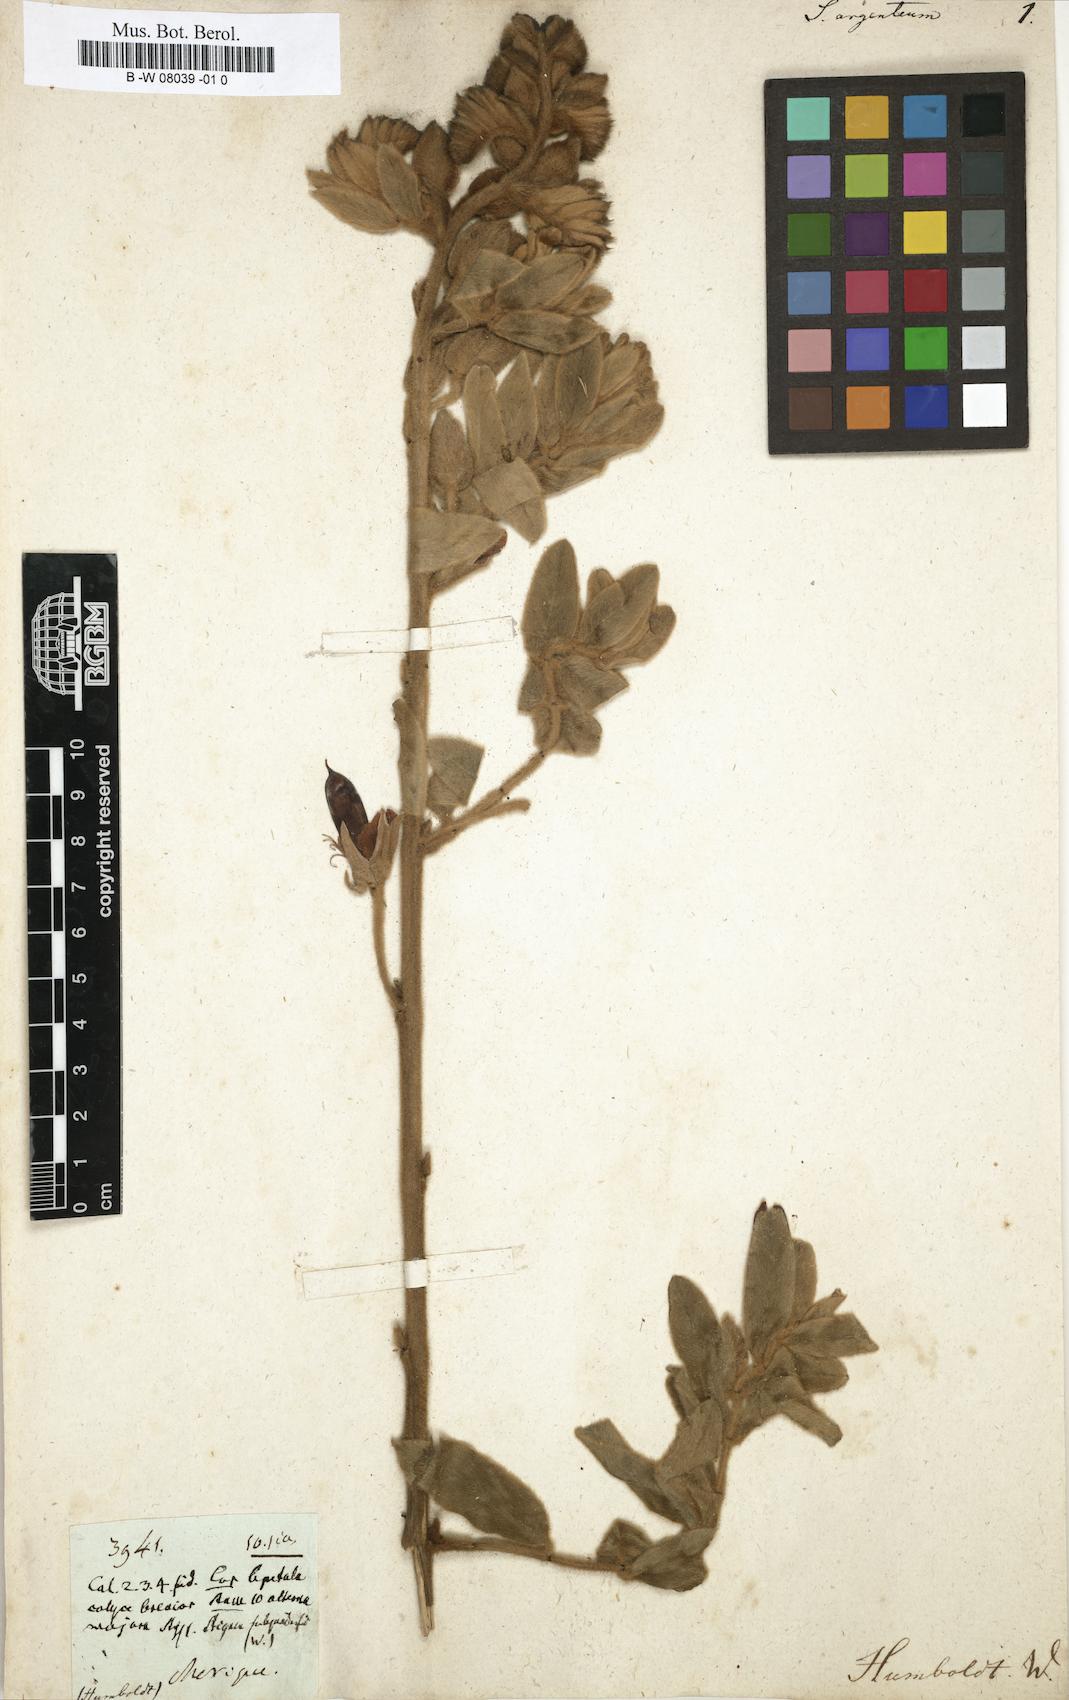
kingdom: Plantae
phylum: Tracheophyta
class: Magnoliopsida
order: Fabales
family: Fabaceae
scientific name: Fabaceae
